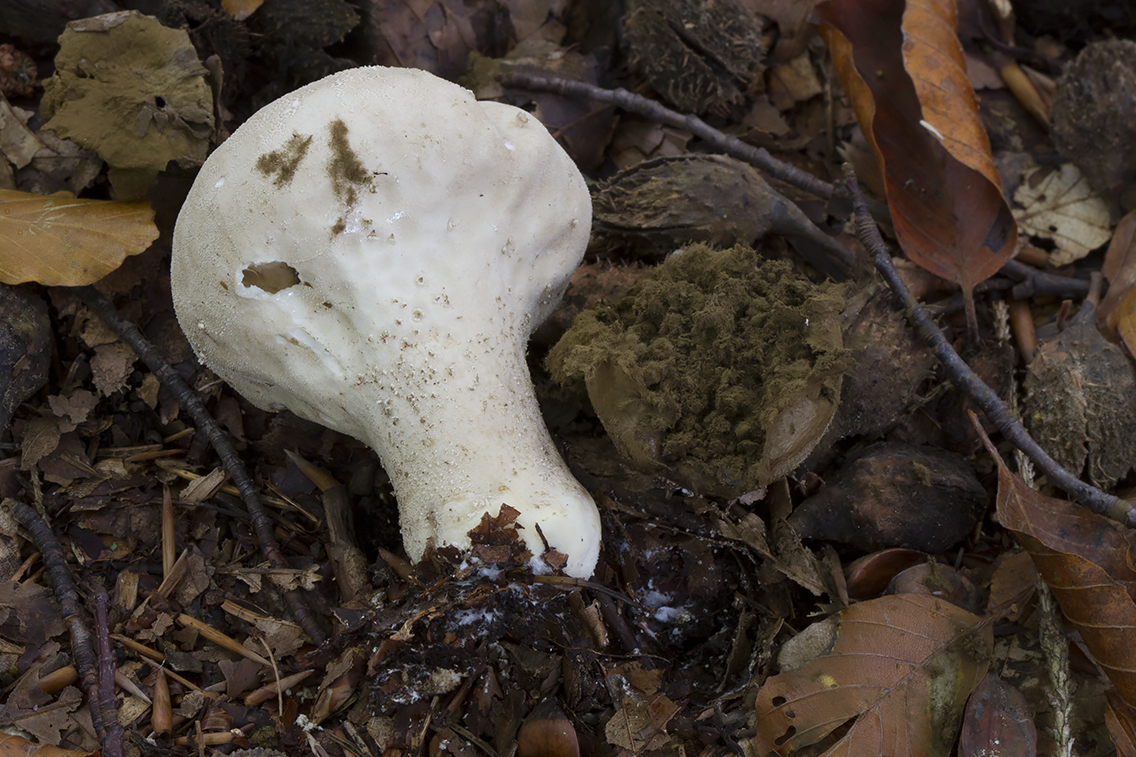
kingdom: Fungi
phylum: Basidiomycota
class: Agaricomycetes
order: Agaricales
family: Lycoperdaceae
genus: Lycoperdon
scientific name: Lycoperdon excipuliforme
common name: højstokket støvbold
